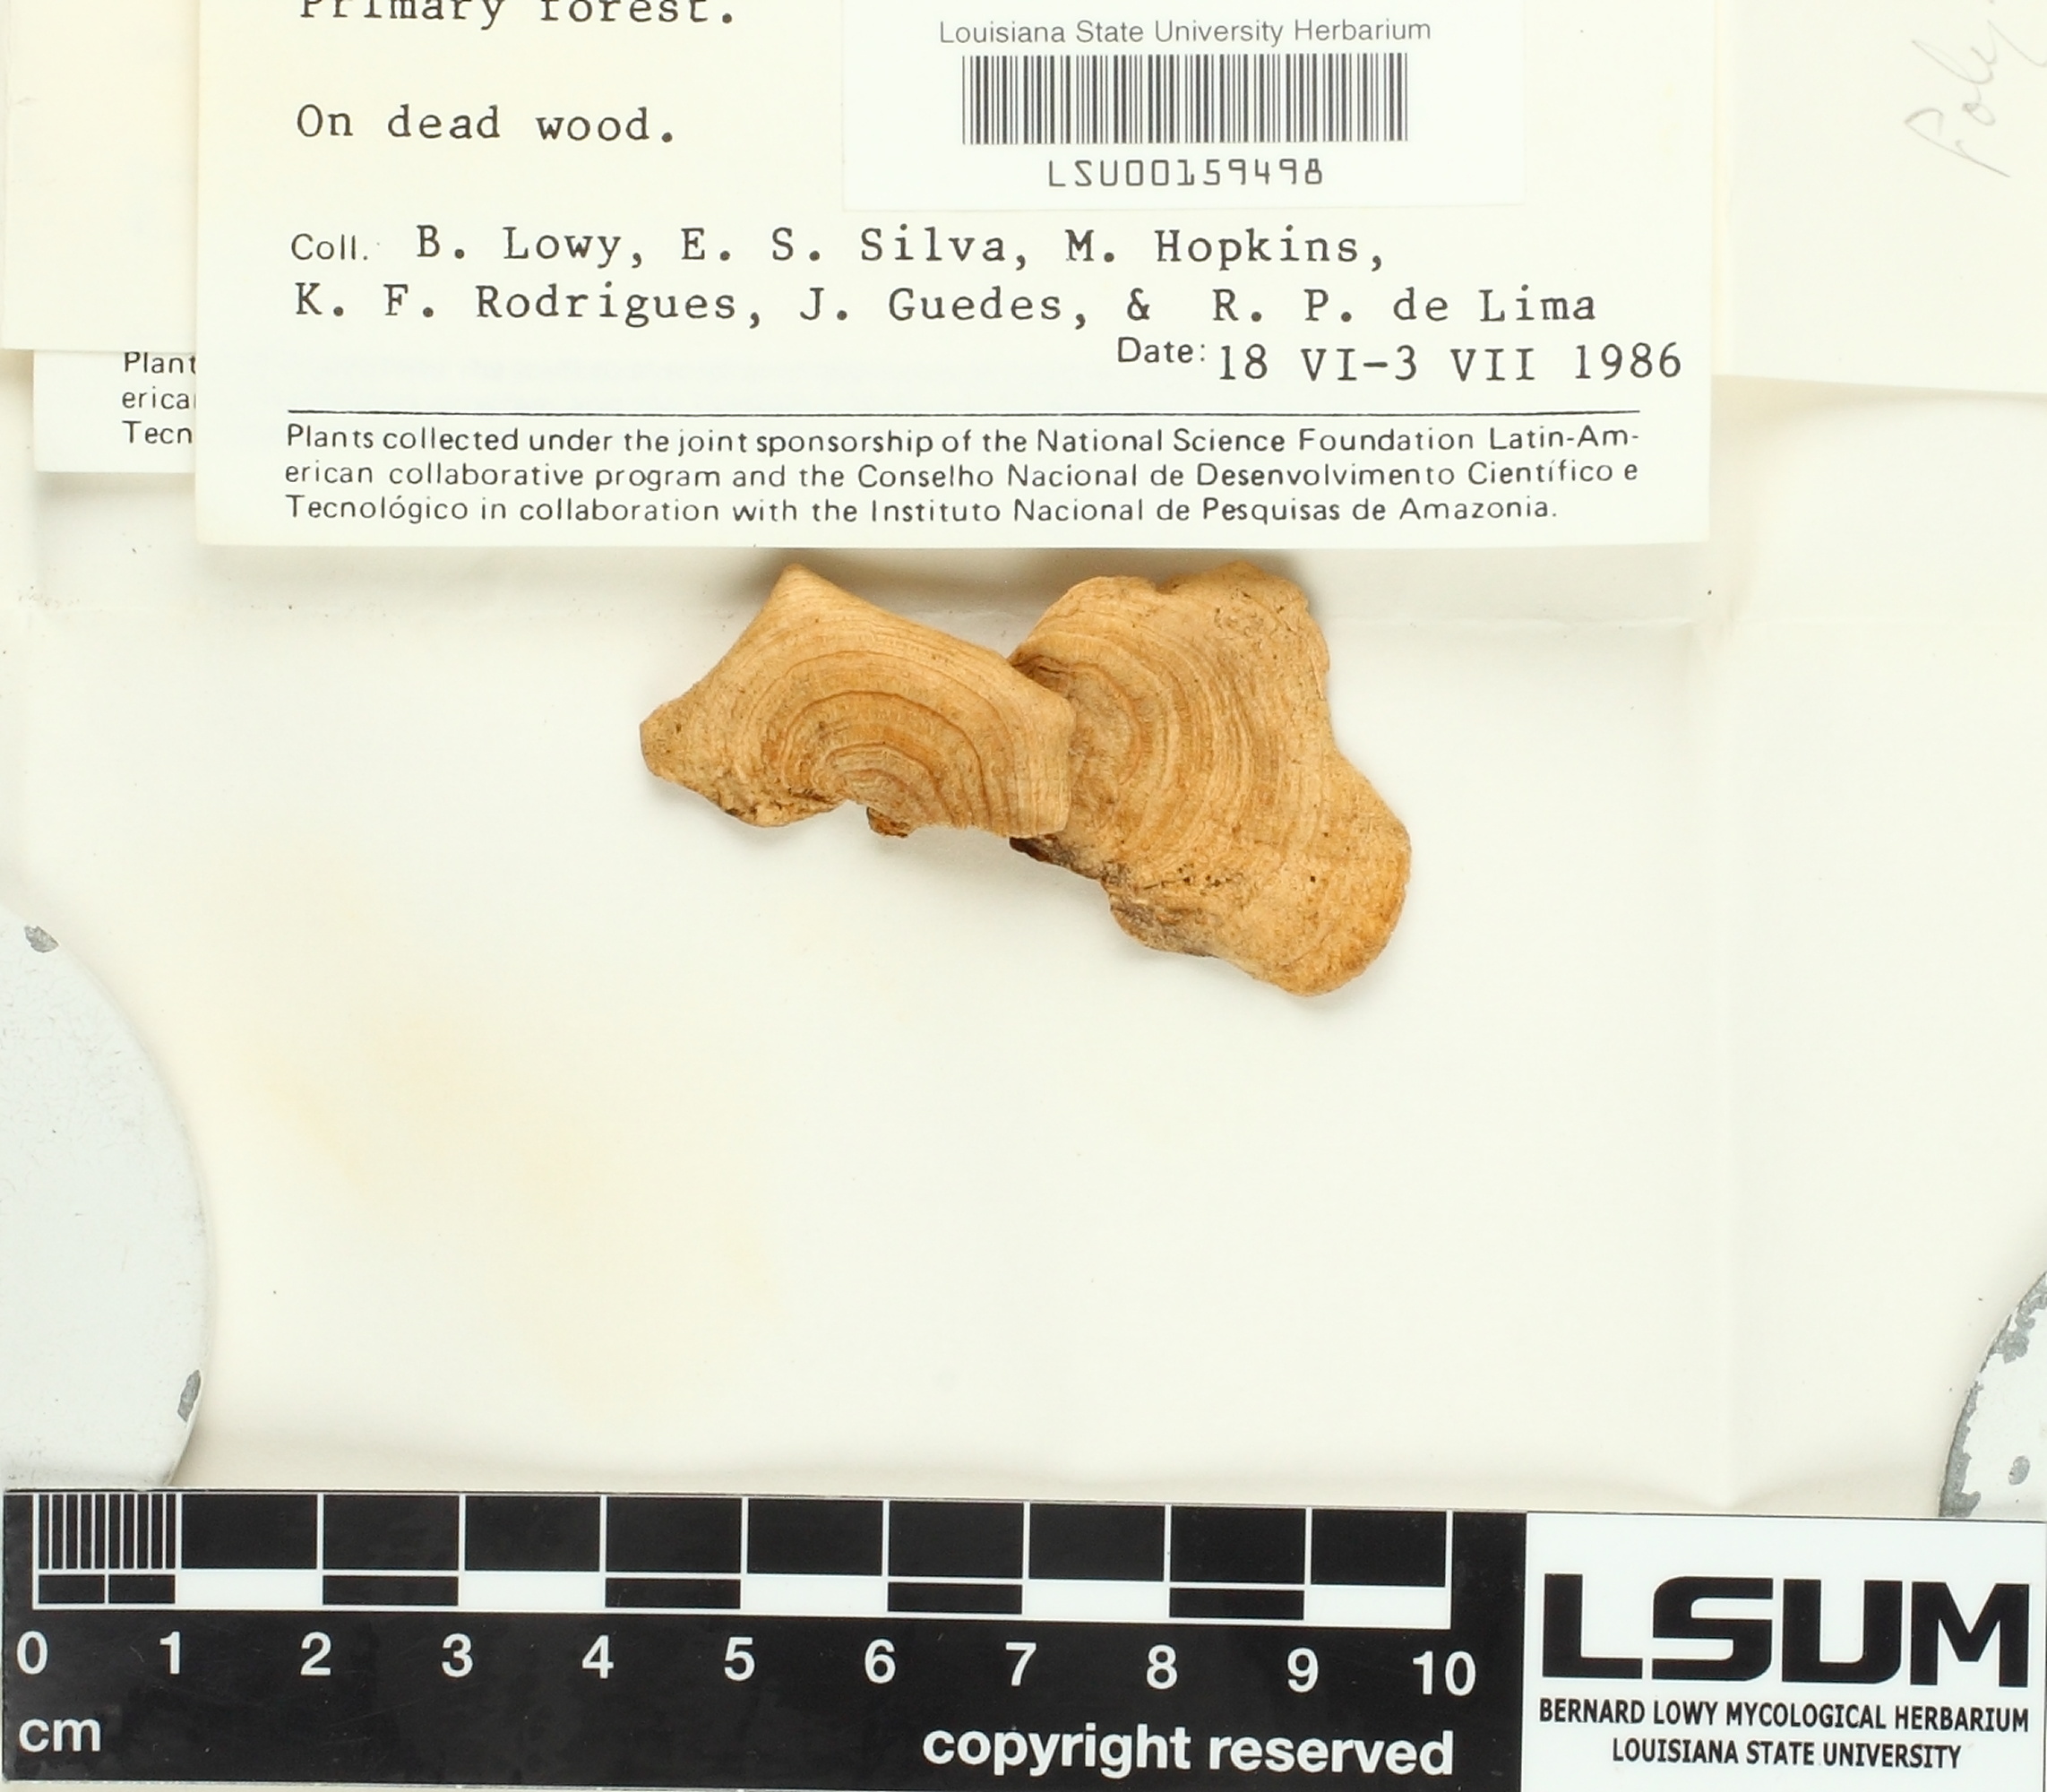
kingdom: Fungi
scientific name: Fungi
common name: Fungi
